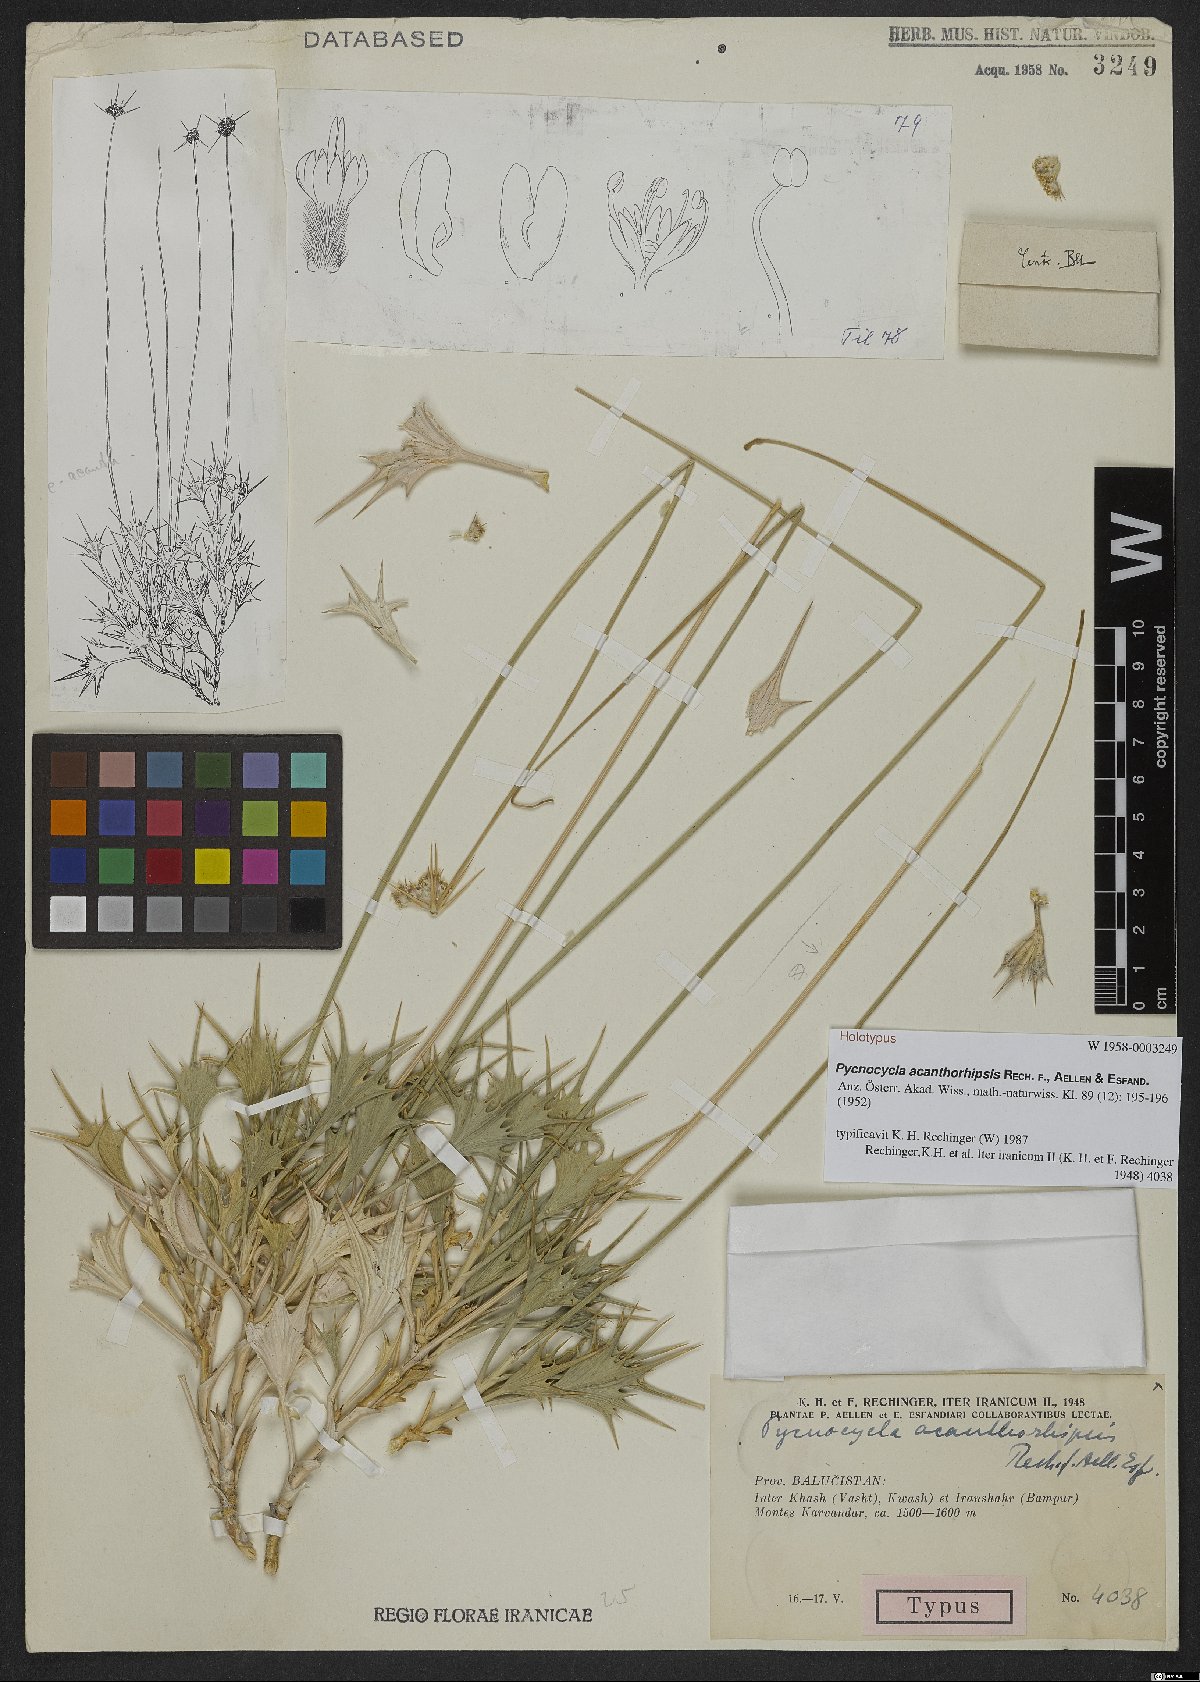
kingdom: Plantae
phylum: Tracheophyta
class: Magnoliopsida
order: Apiales
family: Apiaceae
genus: Pycnocycla
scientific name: Pycnocycla acanthorhipsis
